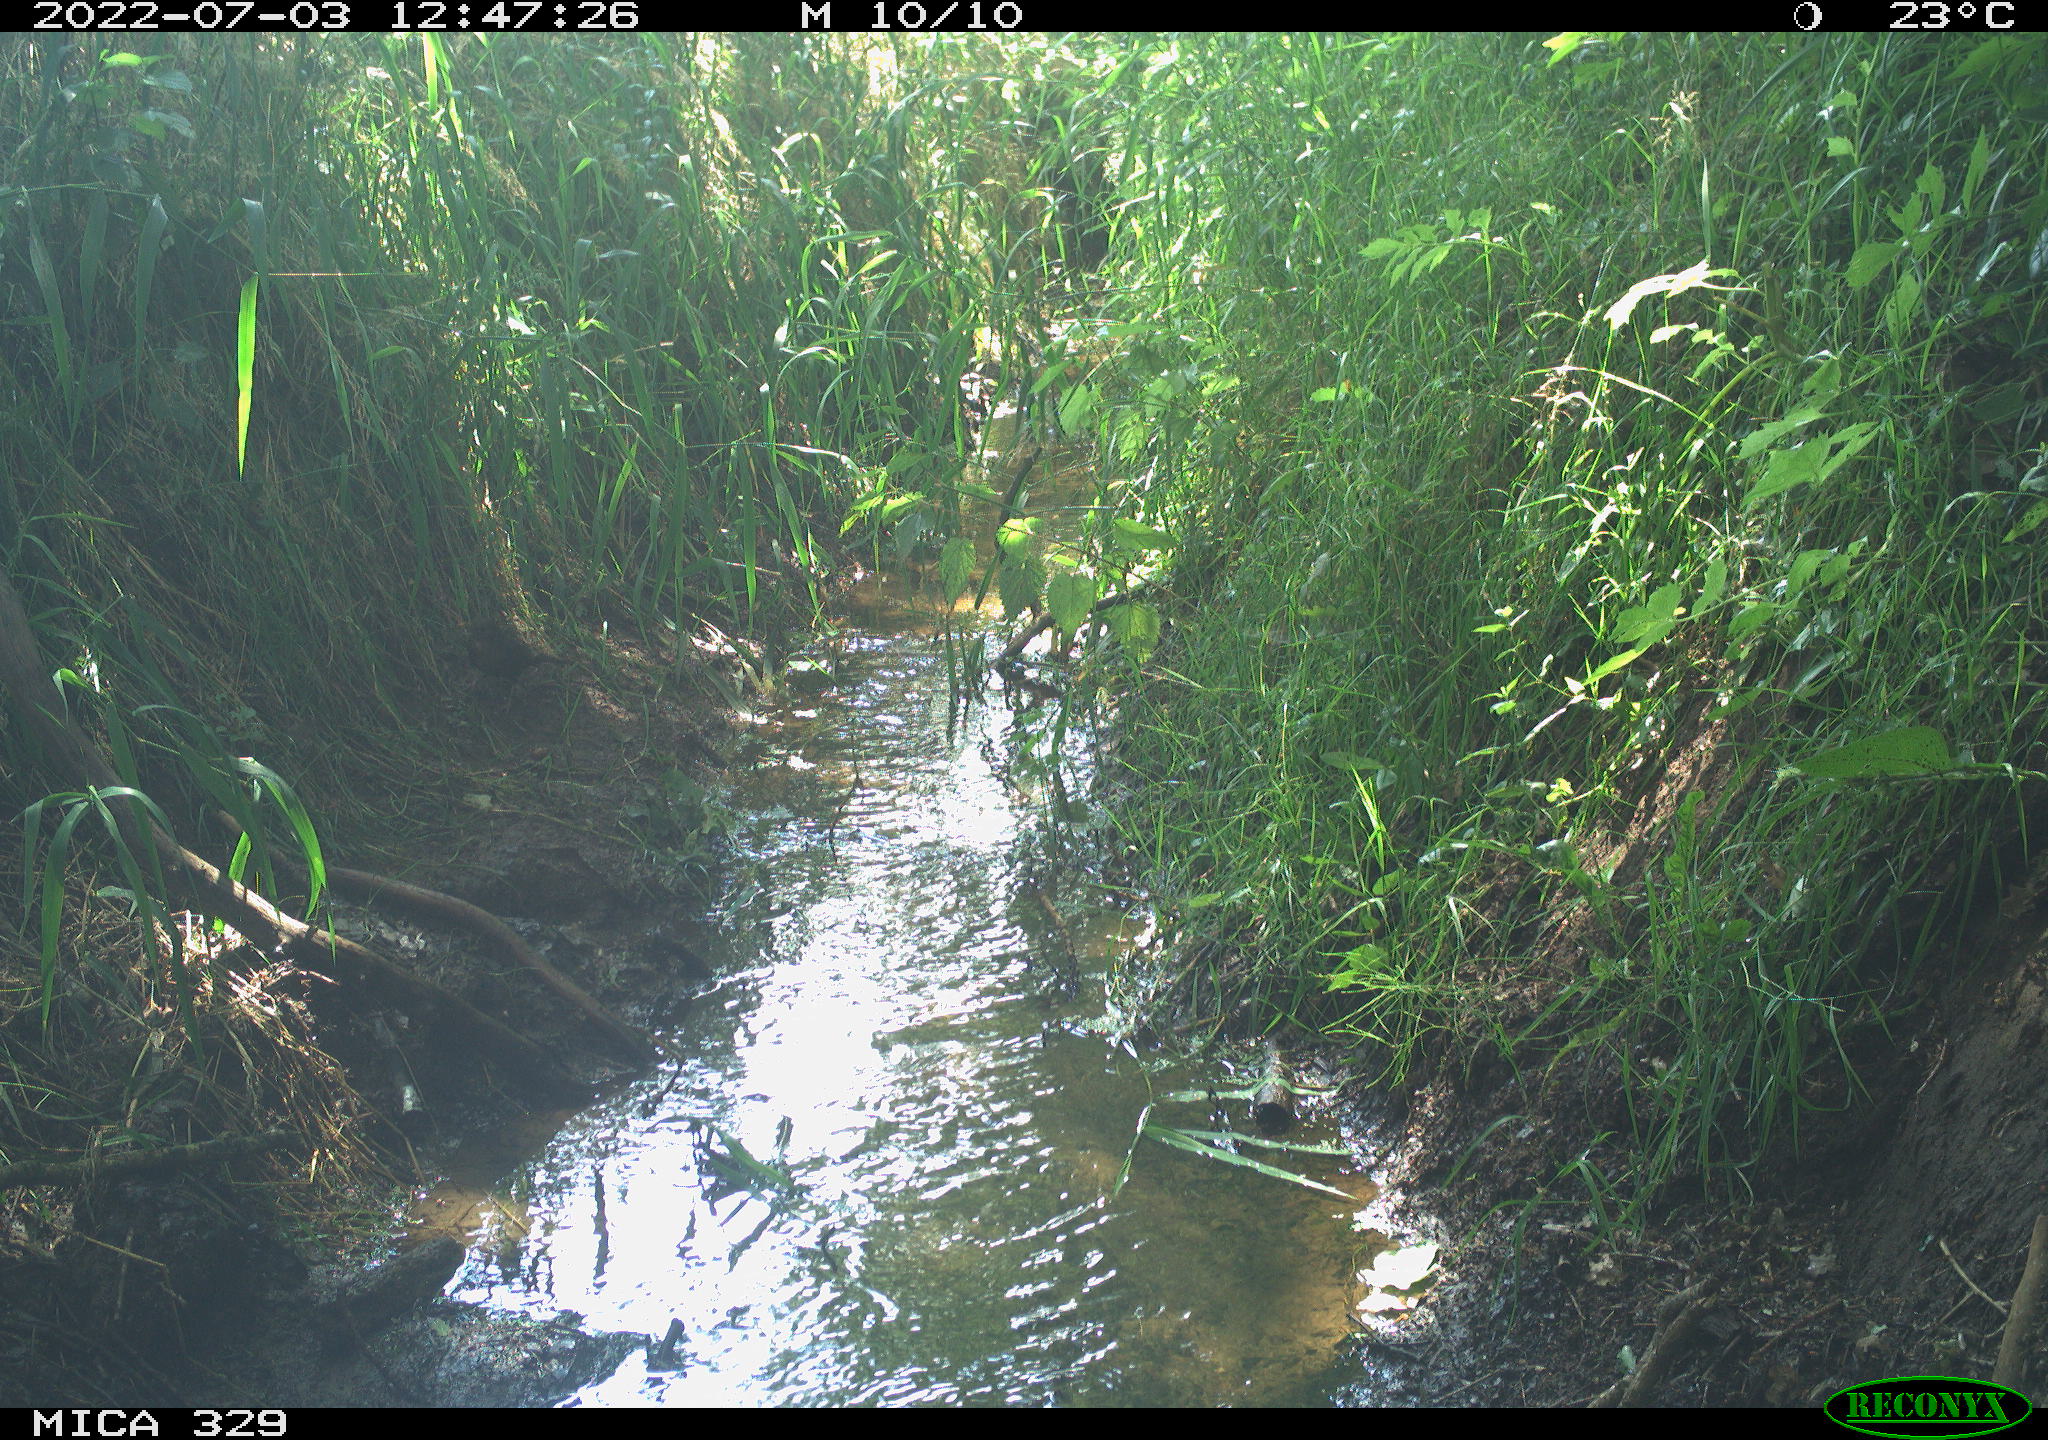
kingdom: Animalia
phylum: Chordata
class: Aves
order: Passeriformes
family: Turdidae
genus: Turdus
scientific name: Turdus merula
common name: Common blackbird
